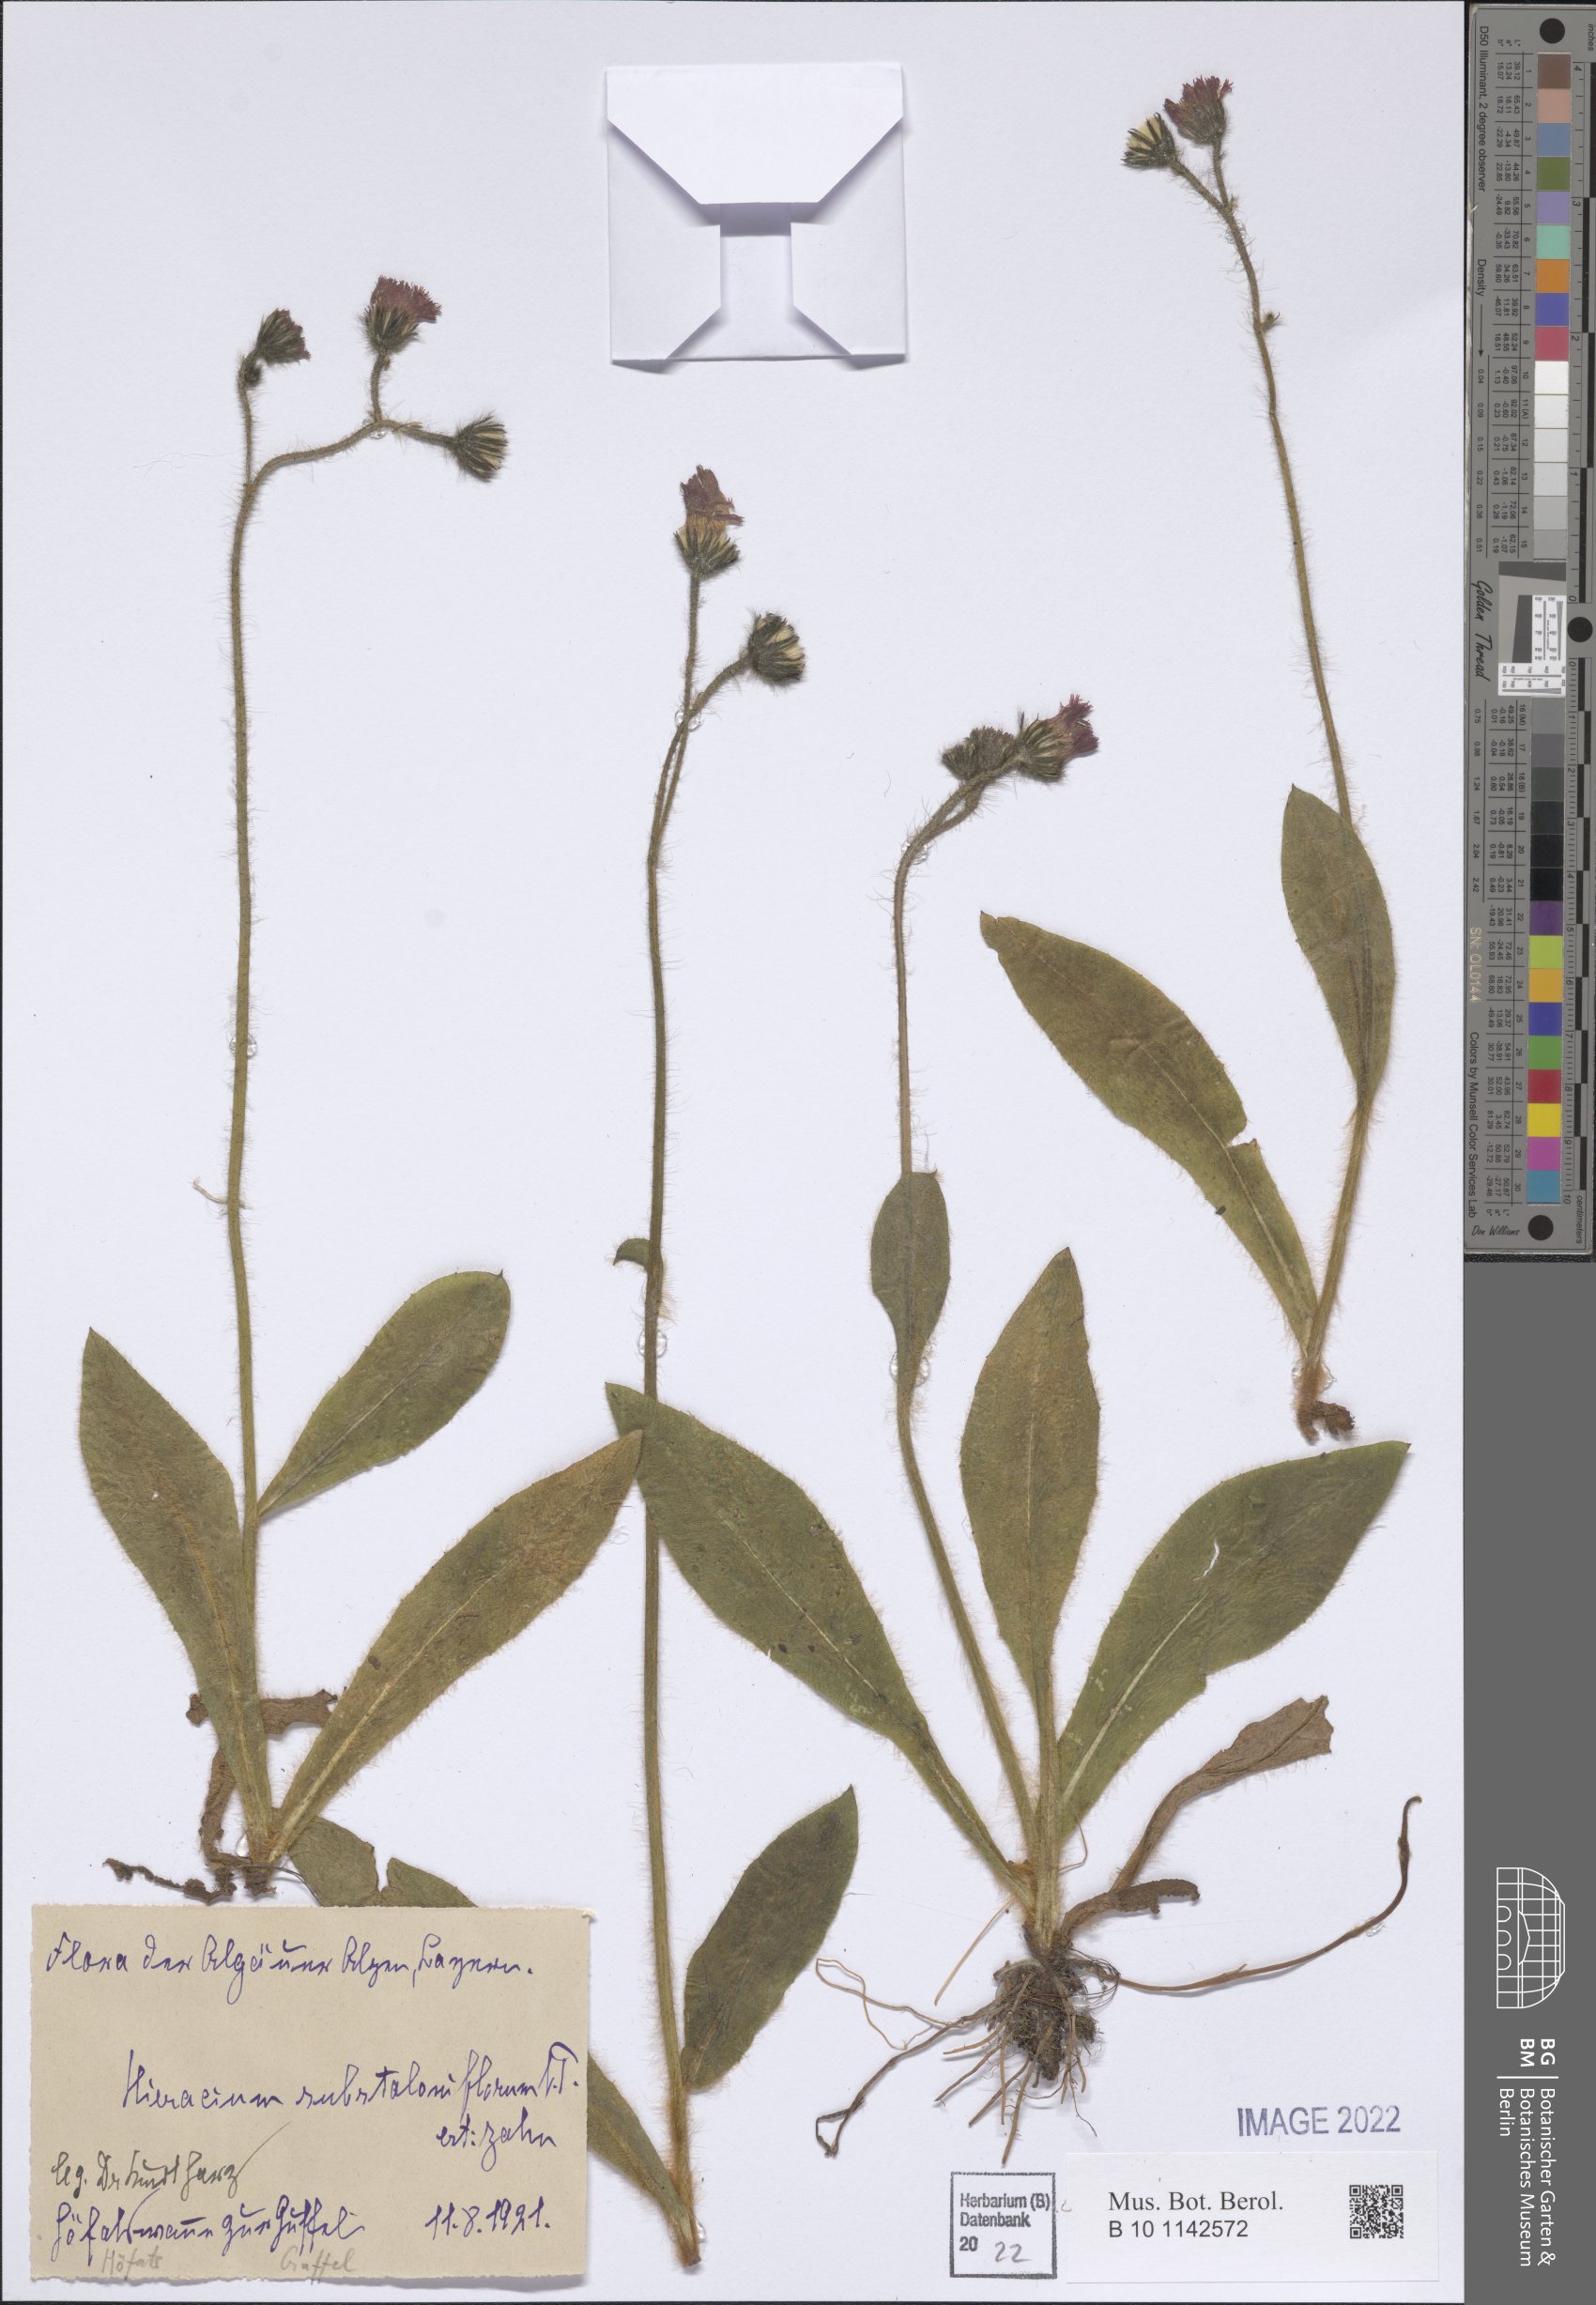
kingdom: Plantae
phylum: Tracheophyta
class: Magnoliopsida
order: Asterales
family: Asteraceae
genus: Pilosella
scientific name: Pilosella aurantiaca
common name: Fox-and-cubs
